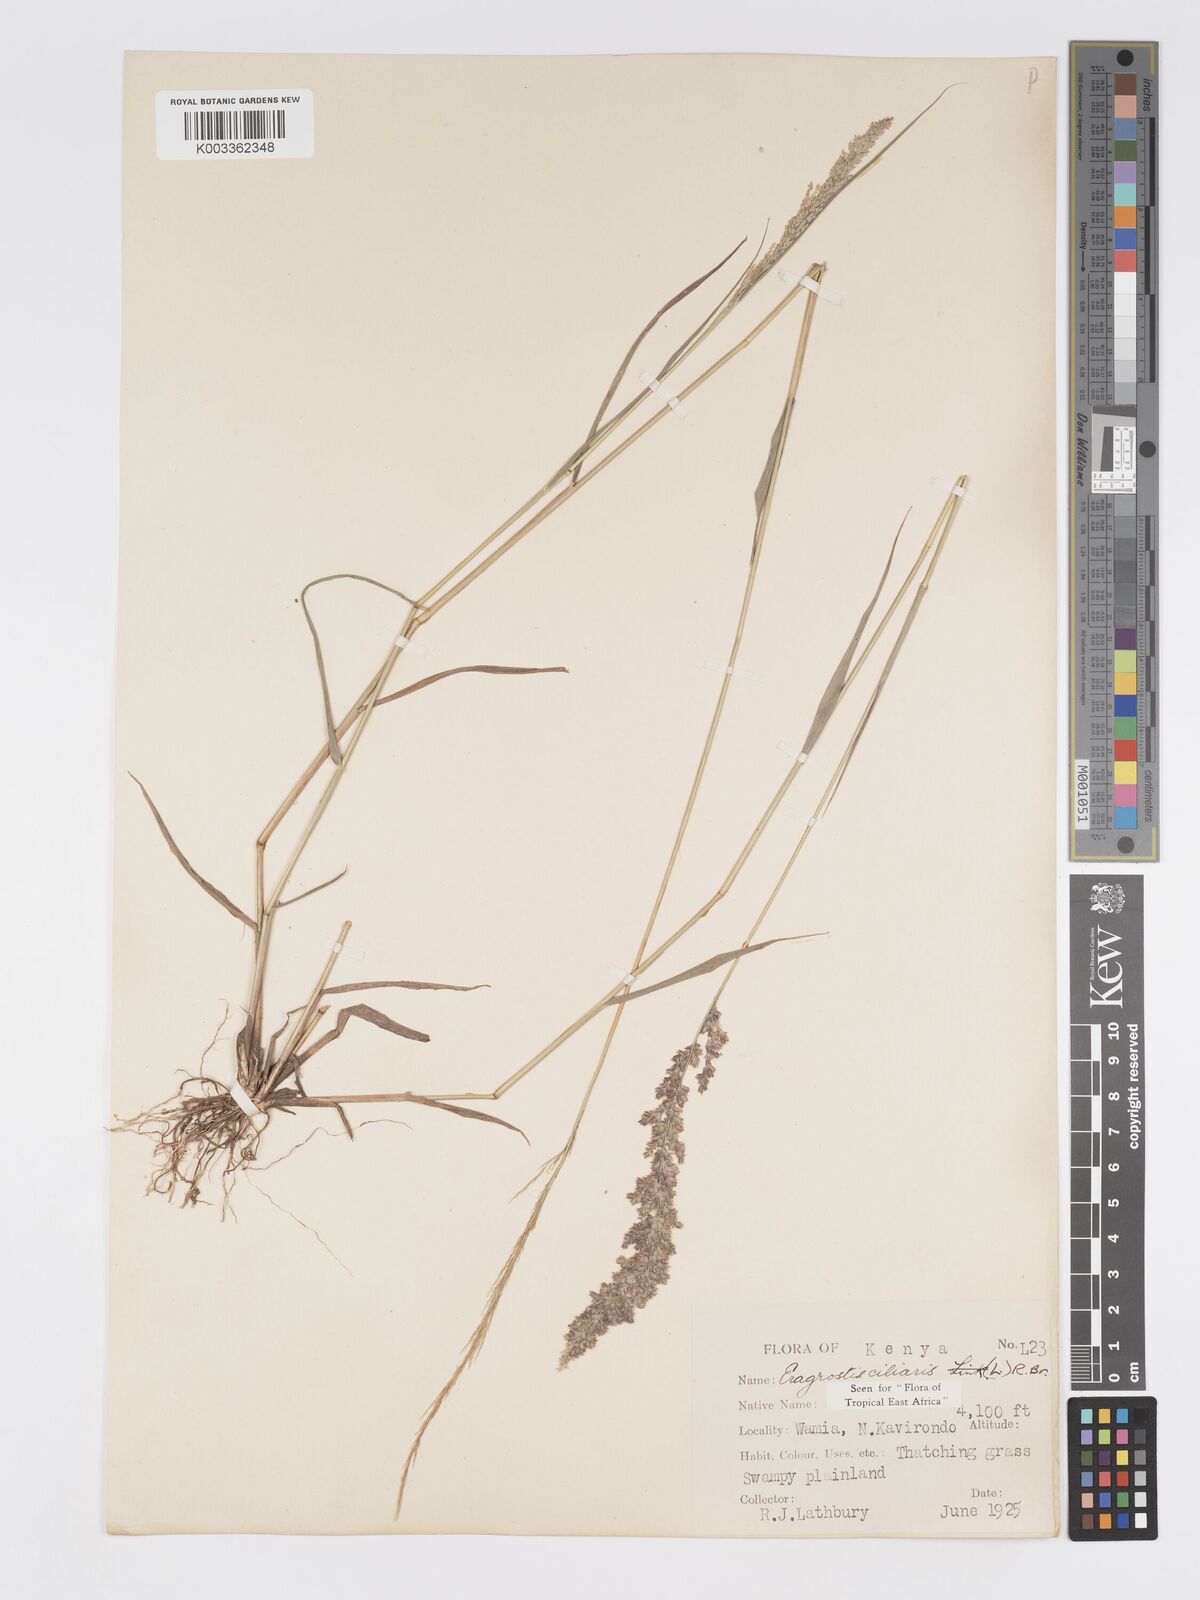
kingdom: Plantae
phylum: Tracheophyta
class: Liliopsida
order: Poales
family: Poaceae
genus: Eragrostis
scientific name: Eragrostis ciliaris
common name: Gophertail lovegrass
